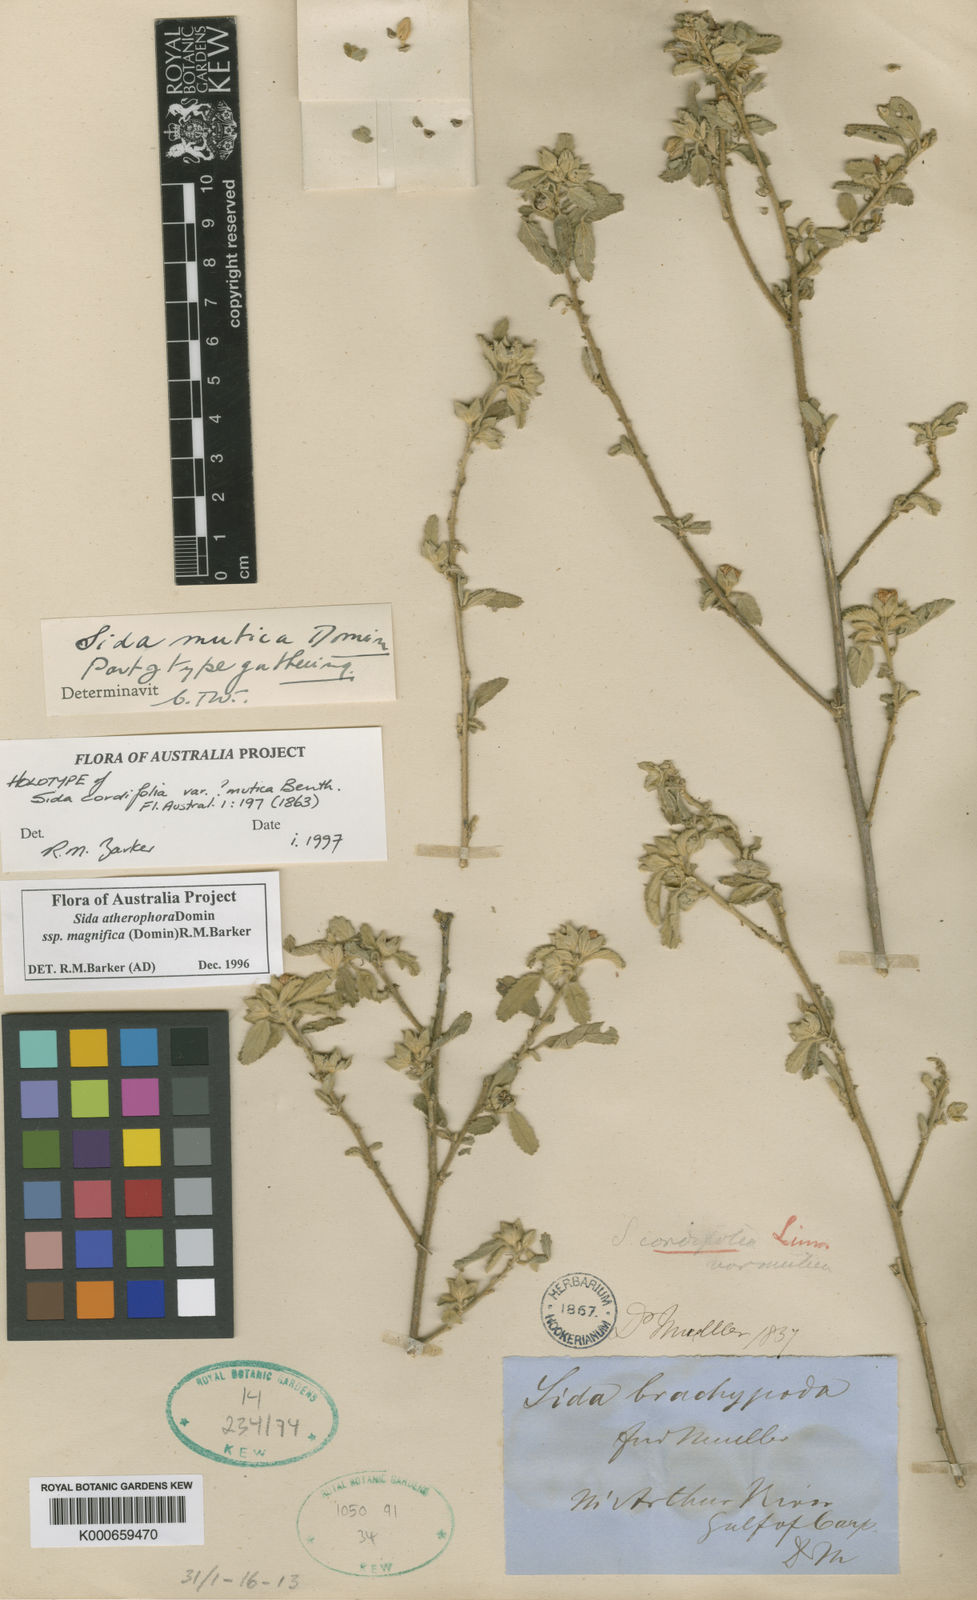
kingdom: Plantae
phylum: Tracheophyta
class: Magnoliopsida
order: Malvales
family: Malvaceae
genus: Sida
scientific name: Sida atherophora
